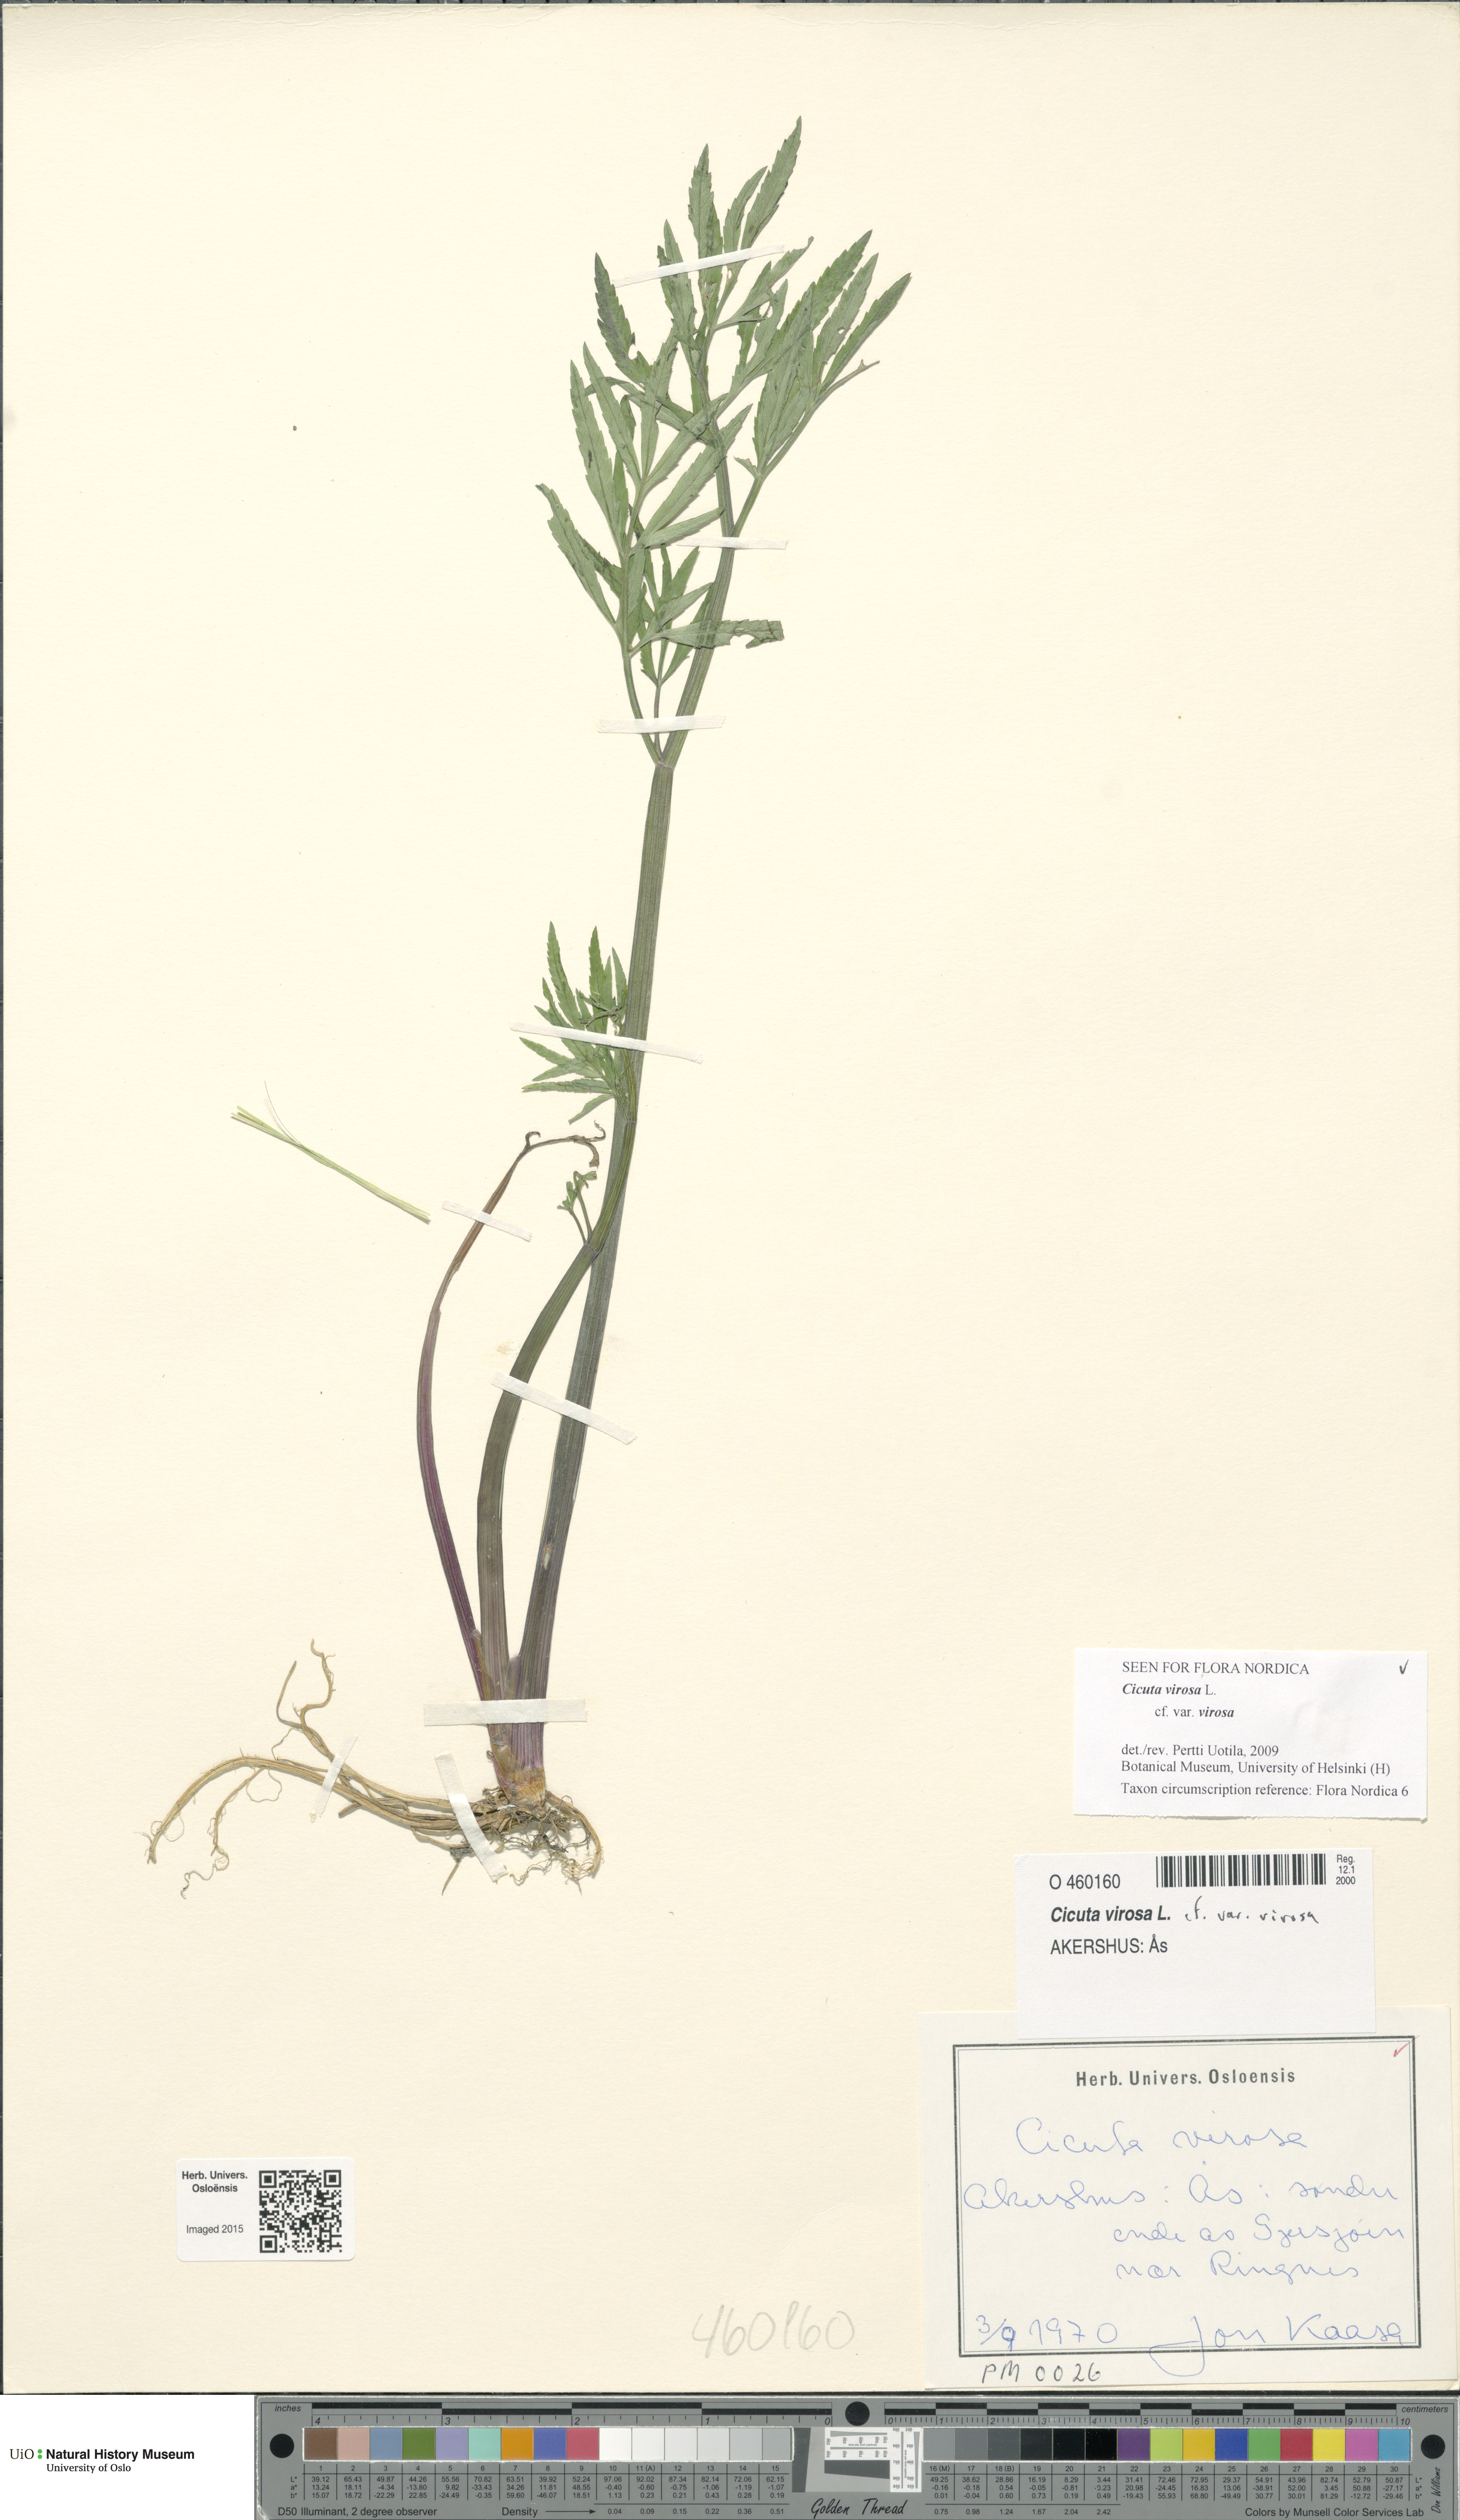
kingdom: Plantae
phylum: Tracheophyta
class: Magnoliopsida
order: Apiales
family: Apiaceae
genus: Cicuta
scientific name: Cicuta virosa
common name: Cowbane
